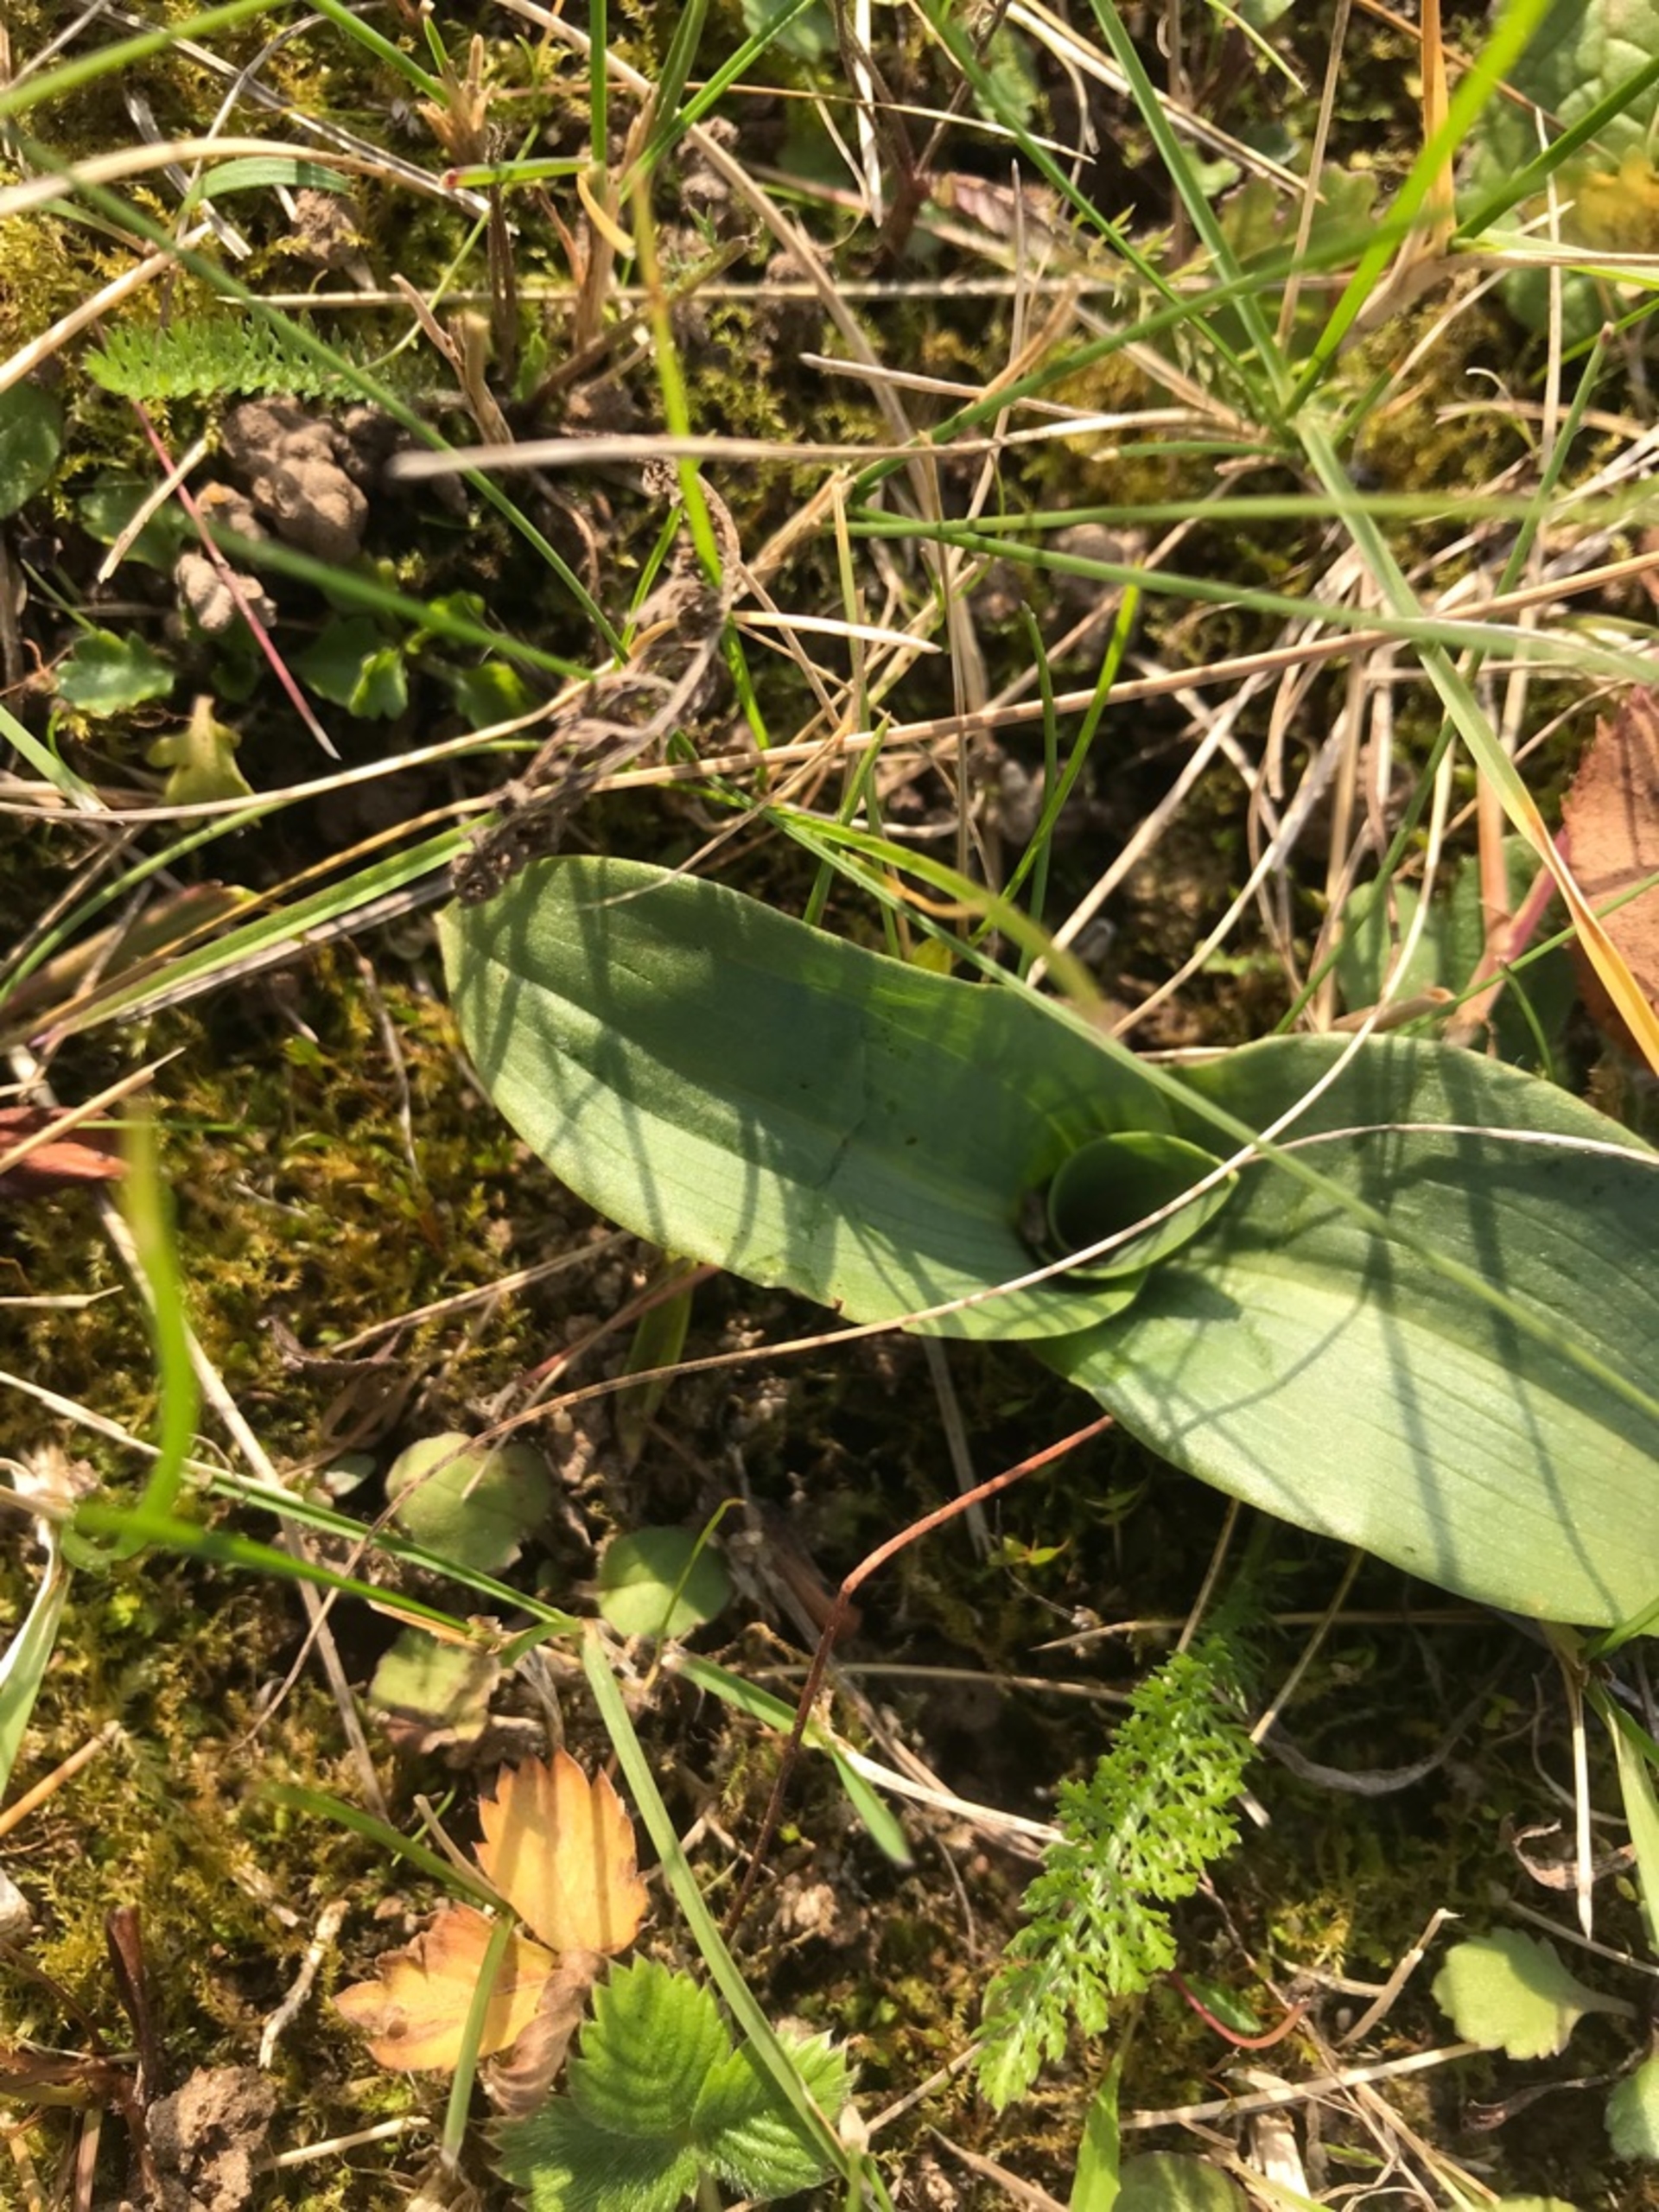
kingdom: Plantae
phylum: Tracheophyta
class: Liliopsida
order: Asparagales
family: Orchidaceae
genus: Ophrys
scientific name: Ophrys apifera
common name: Biblomst
